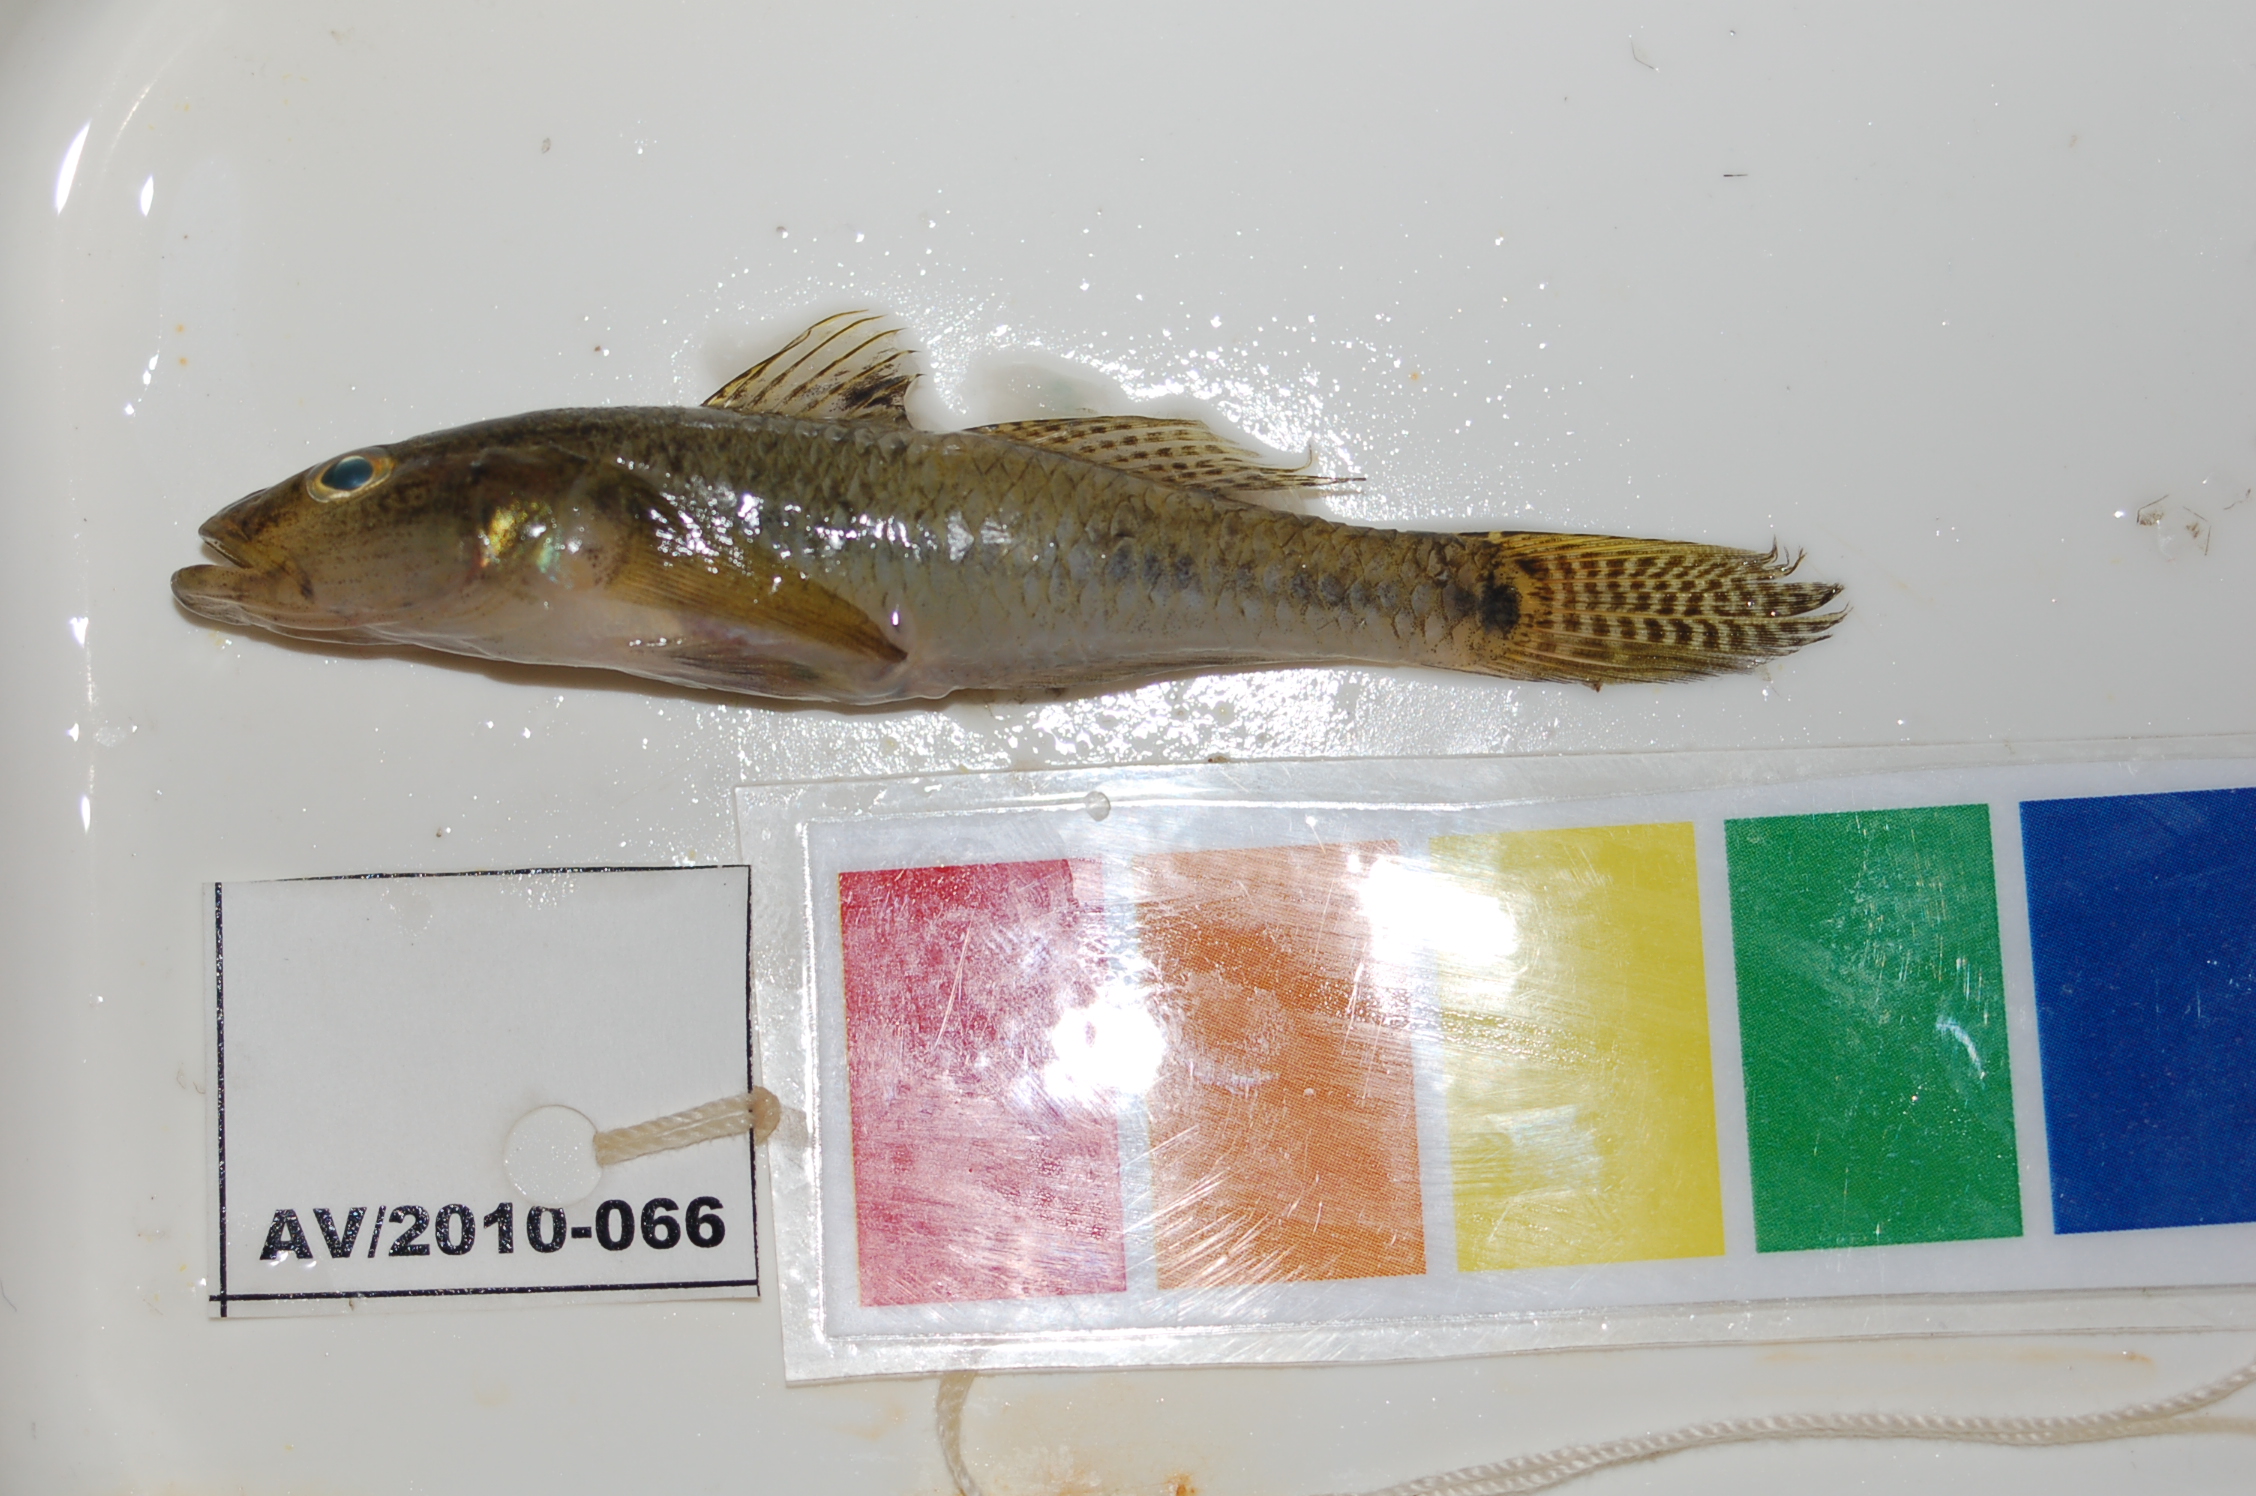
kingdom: Animalia
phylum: Chordata
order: Perciformes
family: Gobiidae
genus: Glossogobius
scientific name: Glossogobius callidus
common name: River goby
